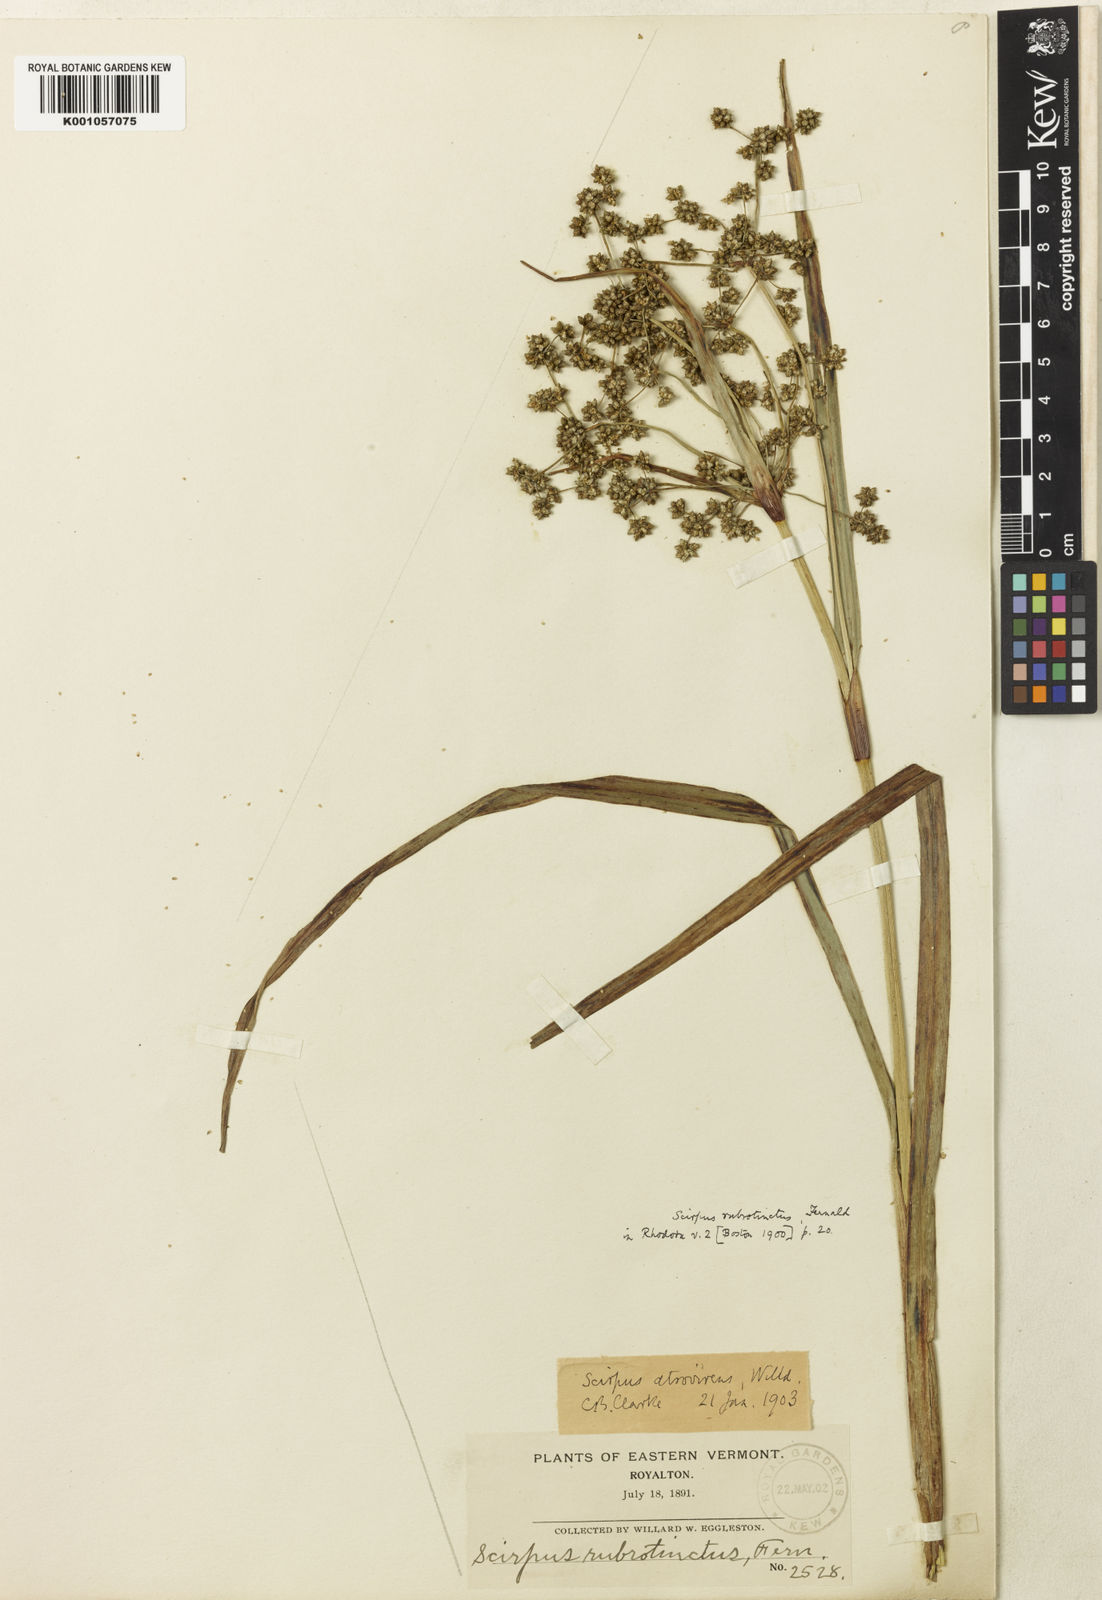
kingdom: Plantae
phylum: Tracheophyta
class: Liliopsida
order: Poales
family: Cyperaceae
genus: Scirpus
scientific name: Scirpus atrovirens
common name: Black bulrush
